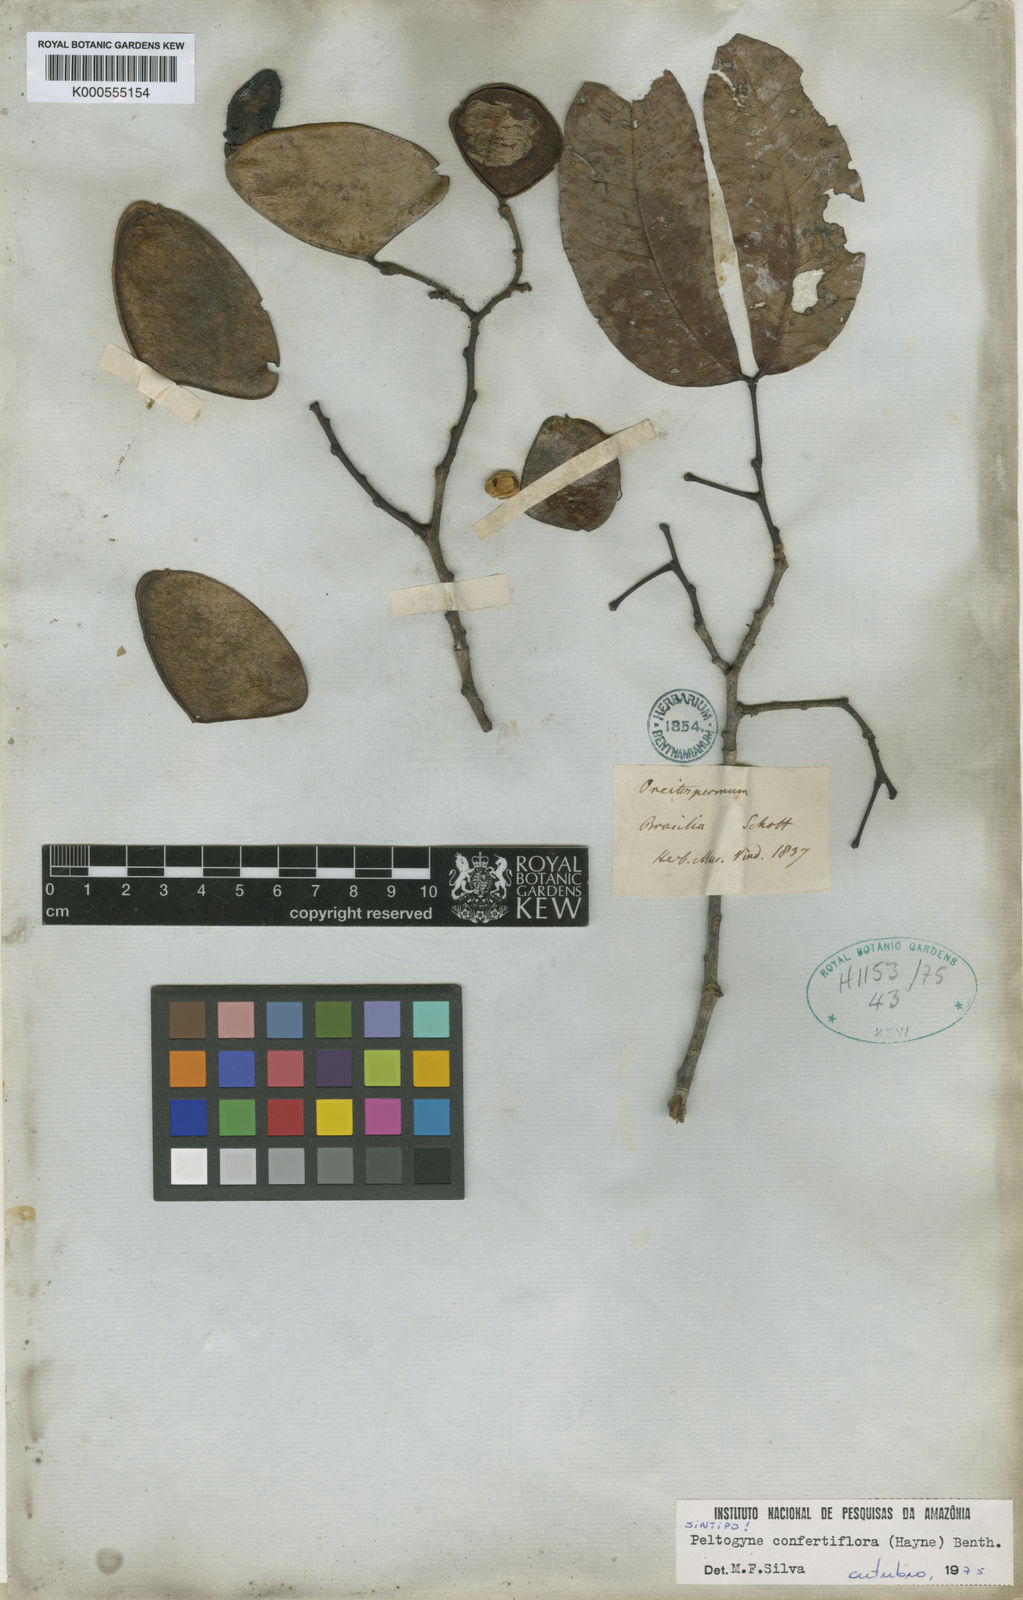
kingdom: Plantae
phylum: Tracheophyta
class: Magnoliopsida
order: Fabales
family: Fabaceae
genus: Peltogyne
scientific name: Peltogyne confertiflora
